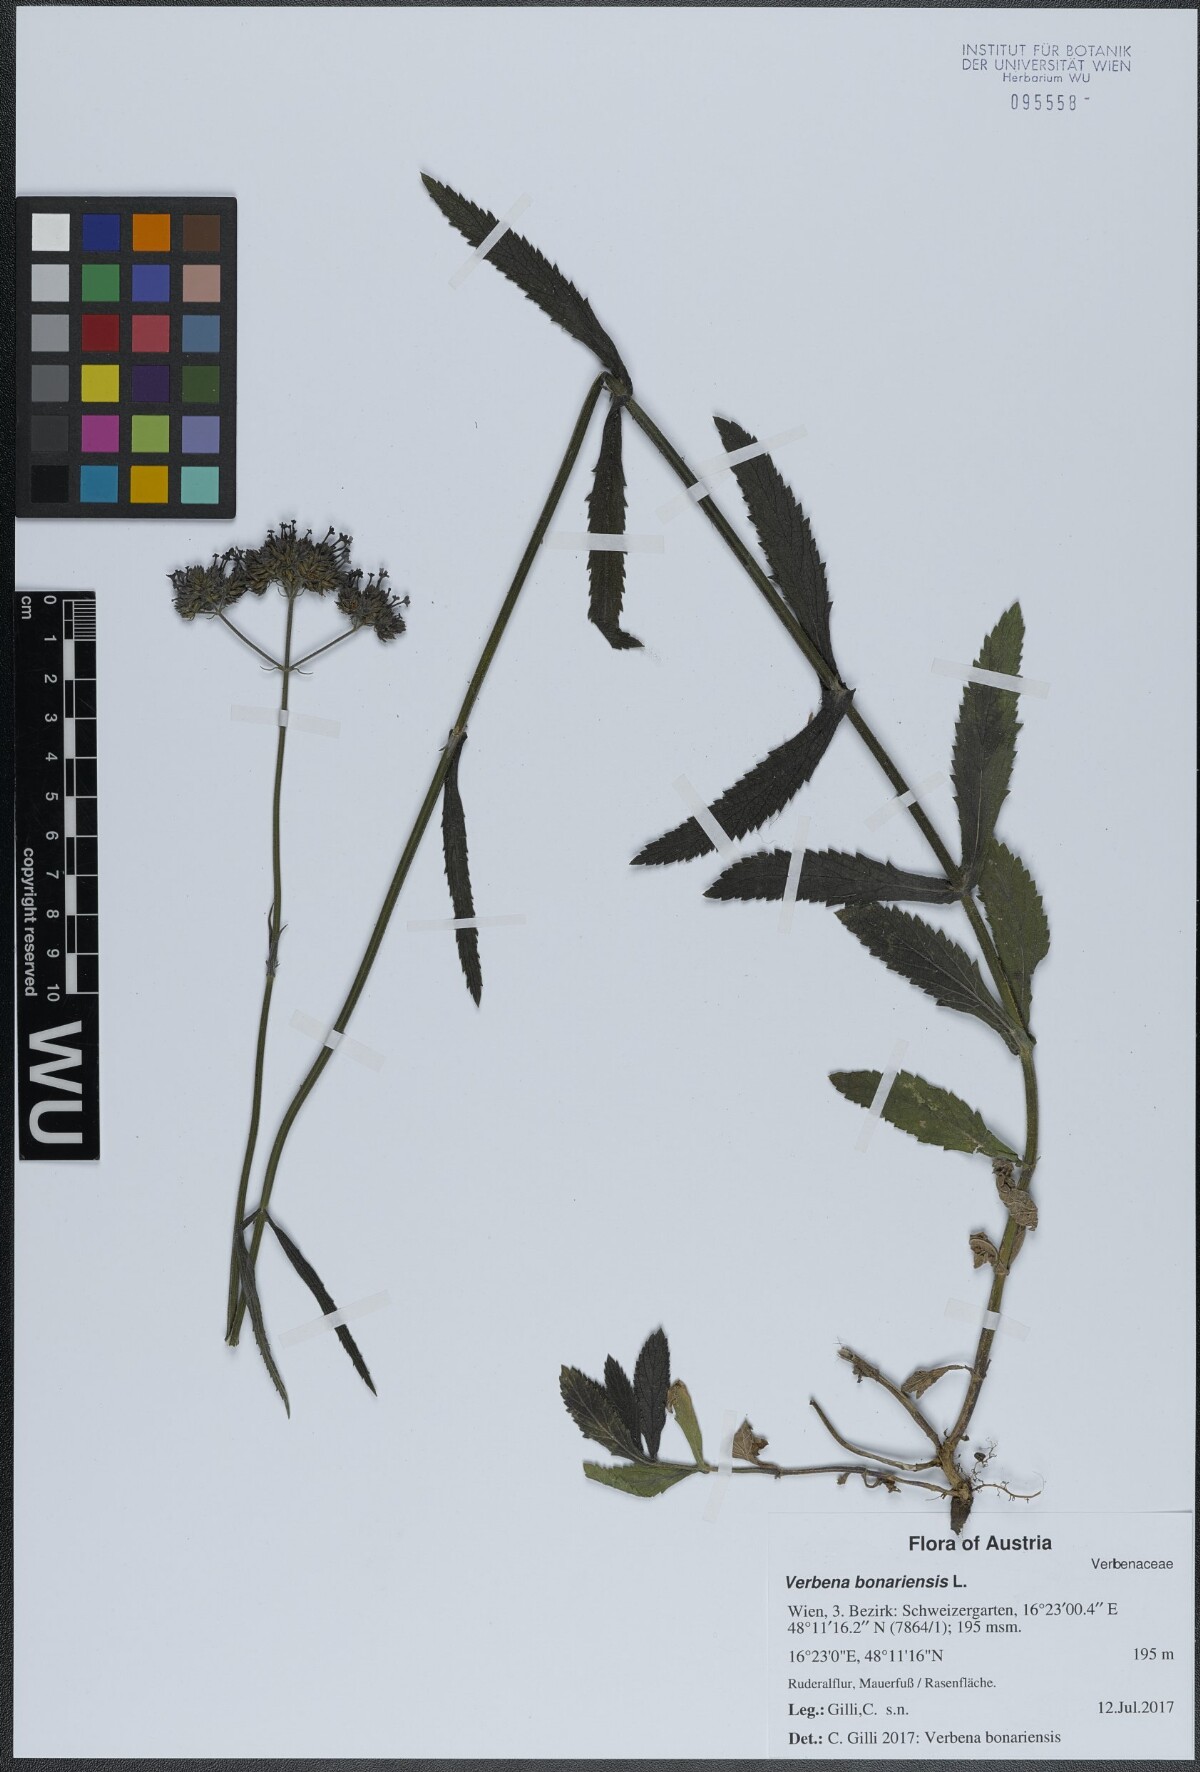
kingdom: Plantae
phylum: Tracheophyta
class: Magnoliopsida
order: Lamiales
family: Verbenaceae
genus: Verbena
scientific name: Verbena bonariensis
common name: Purpletop vervain
